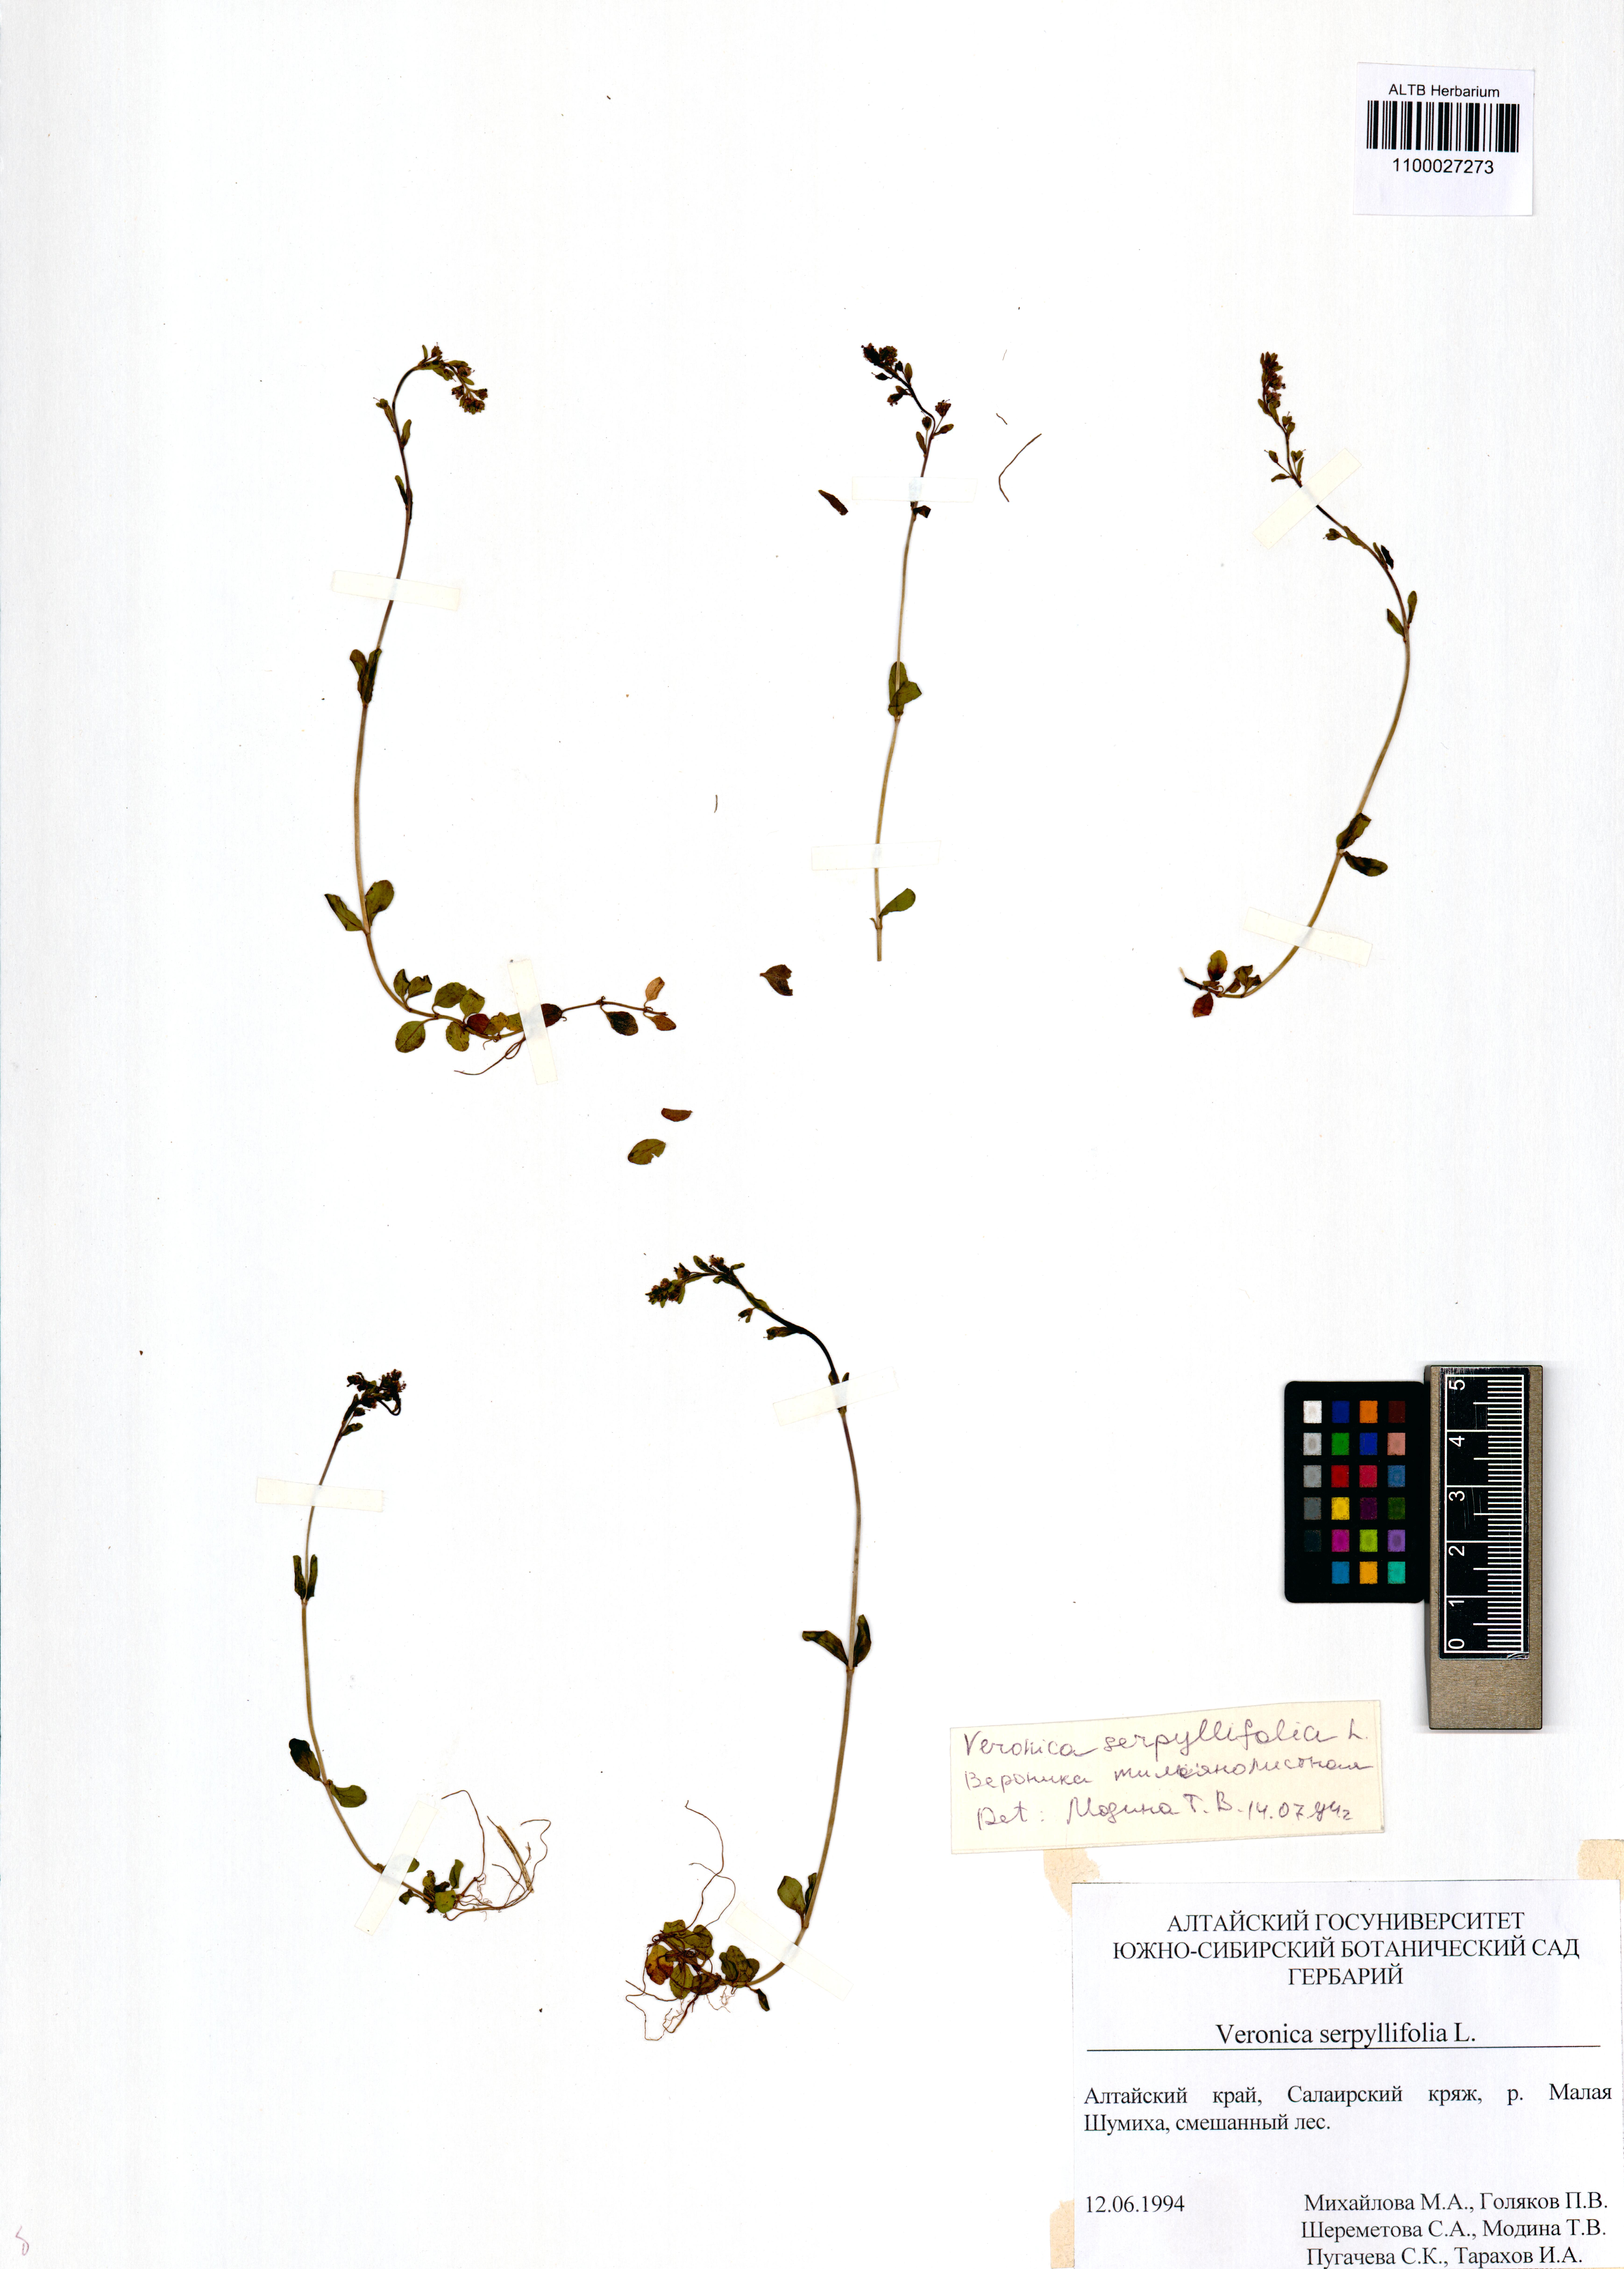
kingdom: Plantae
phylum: Tracheophyta
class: Magnoliopsida
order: Lamiales
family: Plantaginaceae
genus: Veronica
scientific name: Veronica serpyllifolia
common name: Thyme-leaved speedwell
